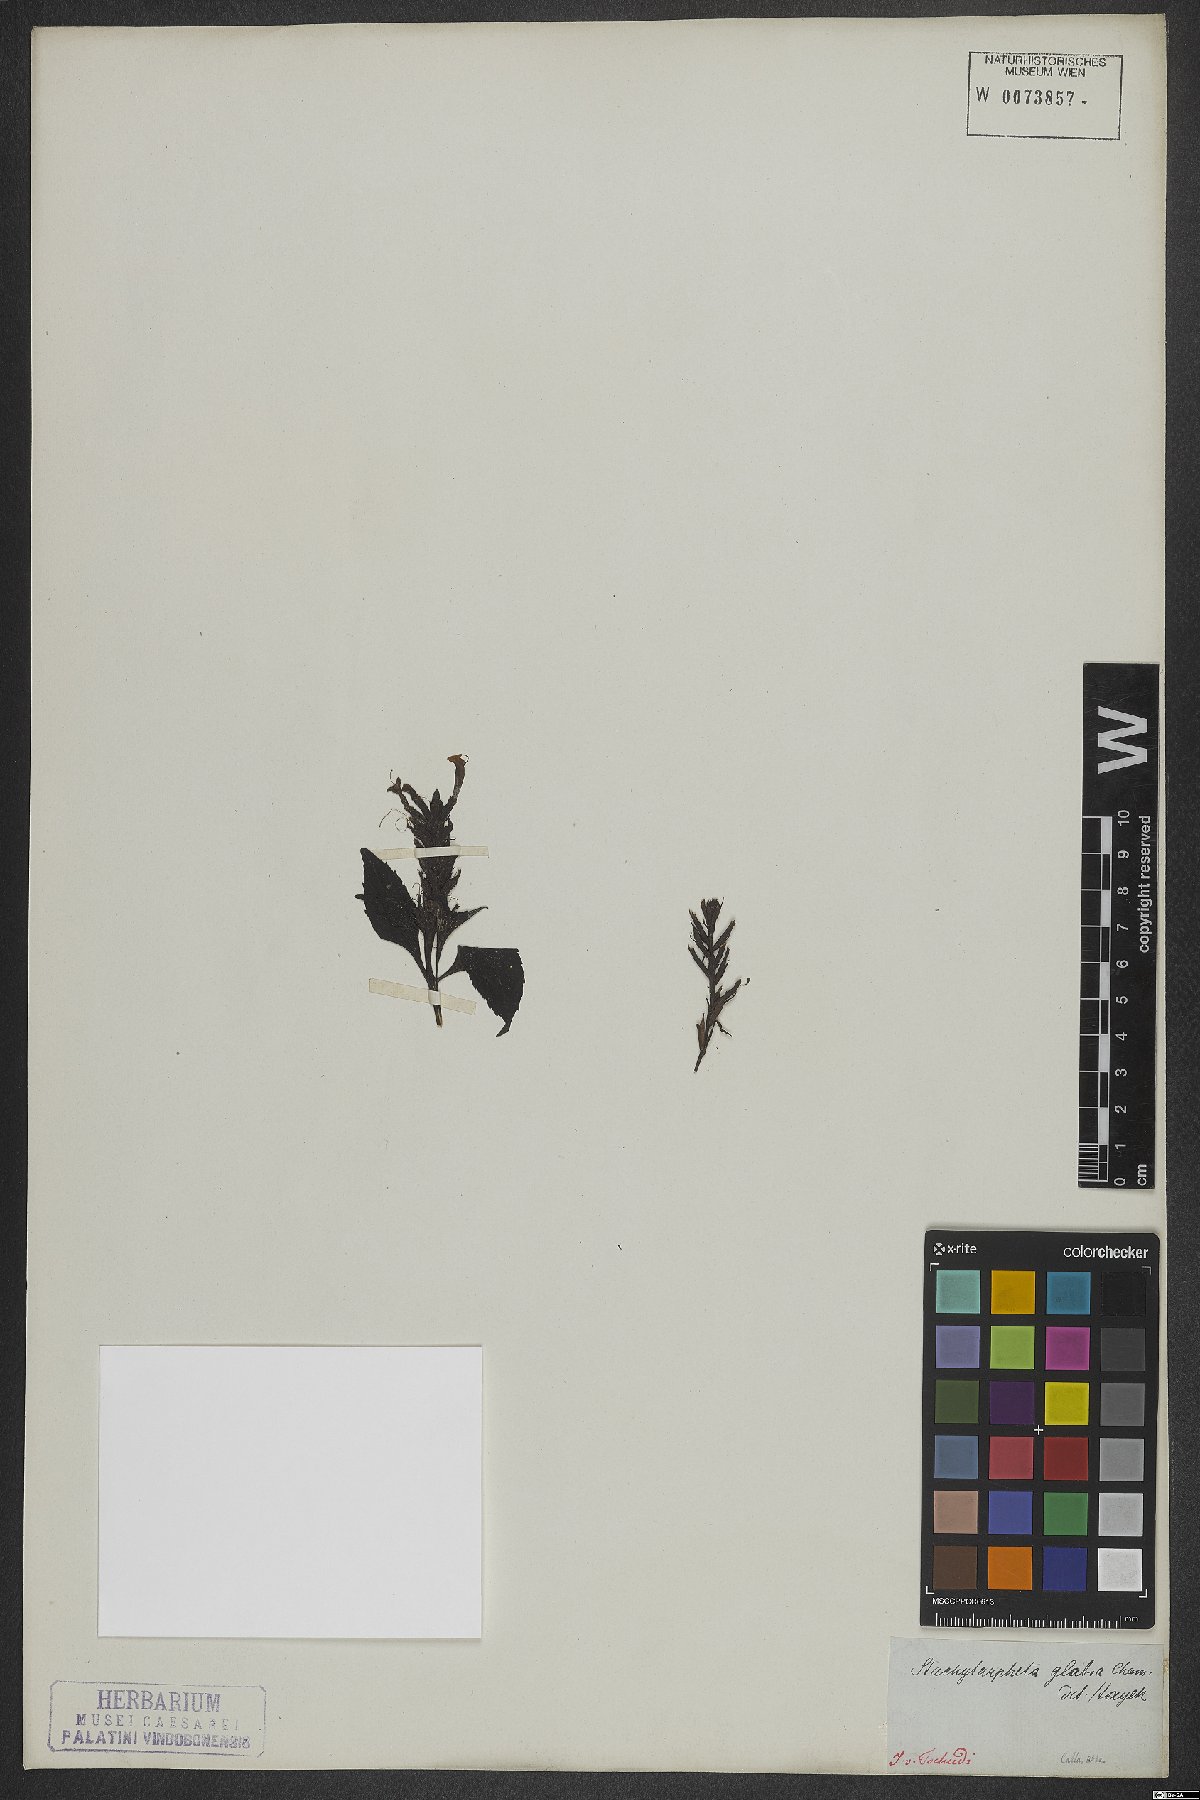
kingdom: Plantae
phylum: Tracheophyta
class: Magnoliopsida
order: Lamiales
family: Verbenaceae
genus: Stachytarpheta
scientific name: Stachytarpheta glabra
